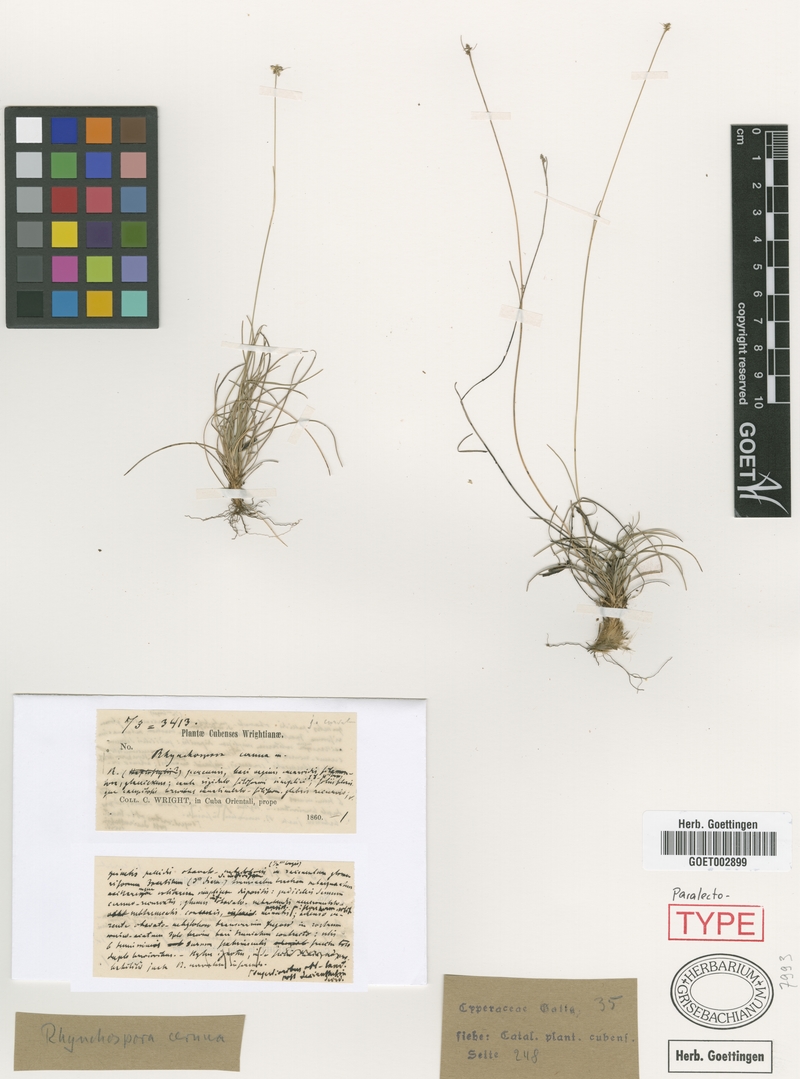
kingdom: Plantae
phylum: Tracheophyta
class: Liliopsida
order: Poales
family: Cyperaceae
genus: Rhynchospora
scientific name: Rhynchospora cernua
